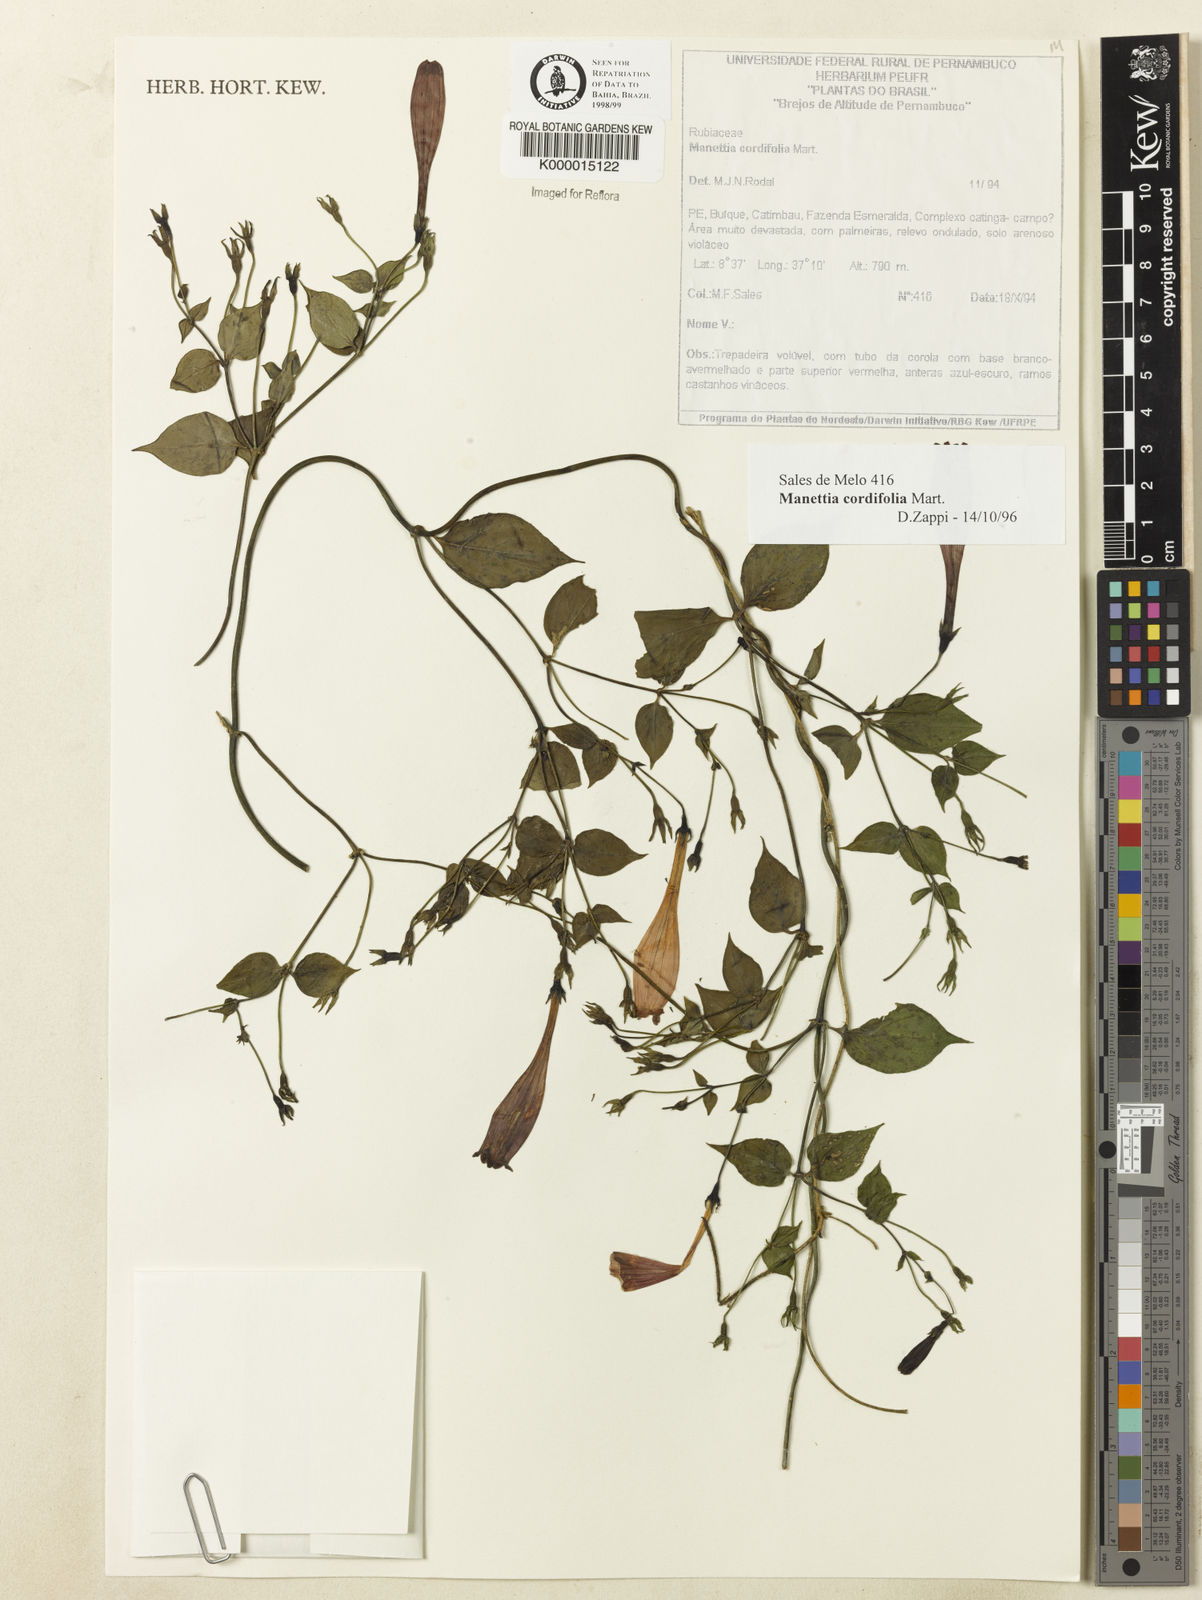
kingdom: Plantae
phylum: Tracheophyta
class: Magnoliopsida
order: Gentianales
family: Rubiaceae
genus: Manettia
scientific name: Manettia cordifolia
